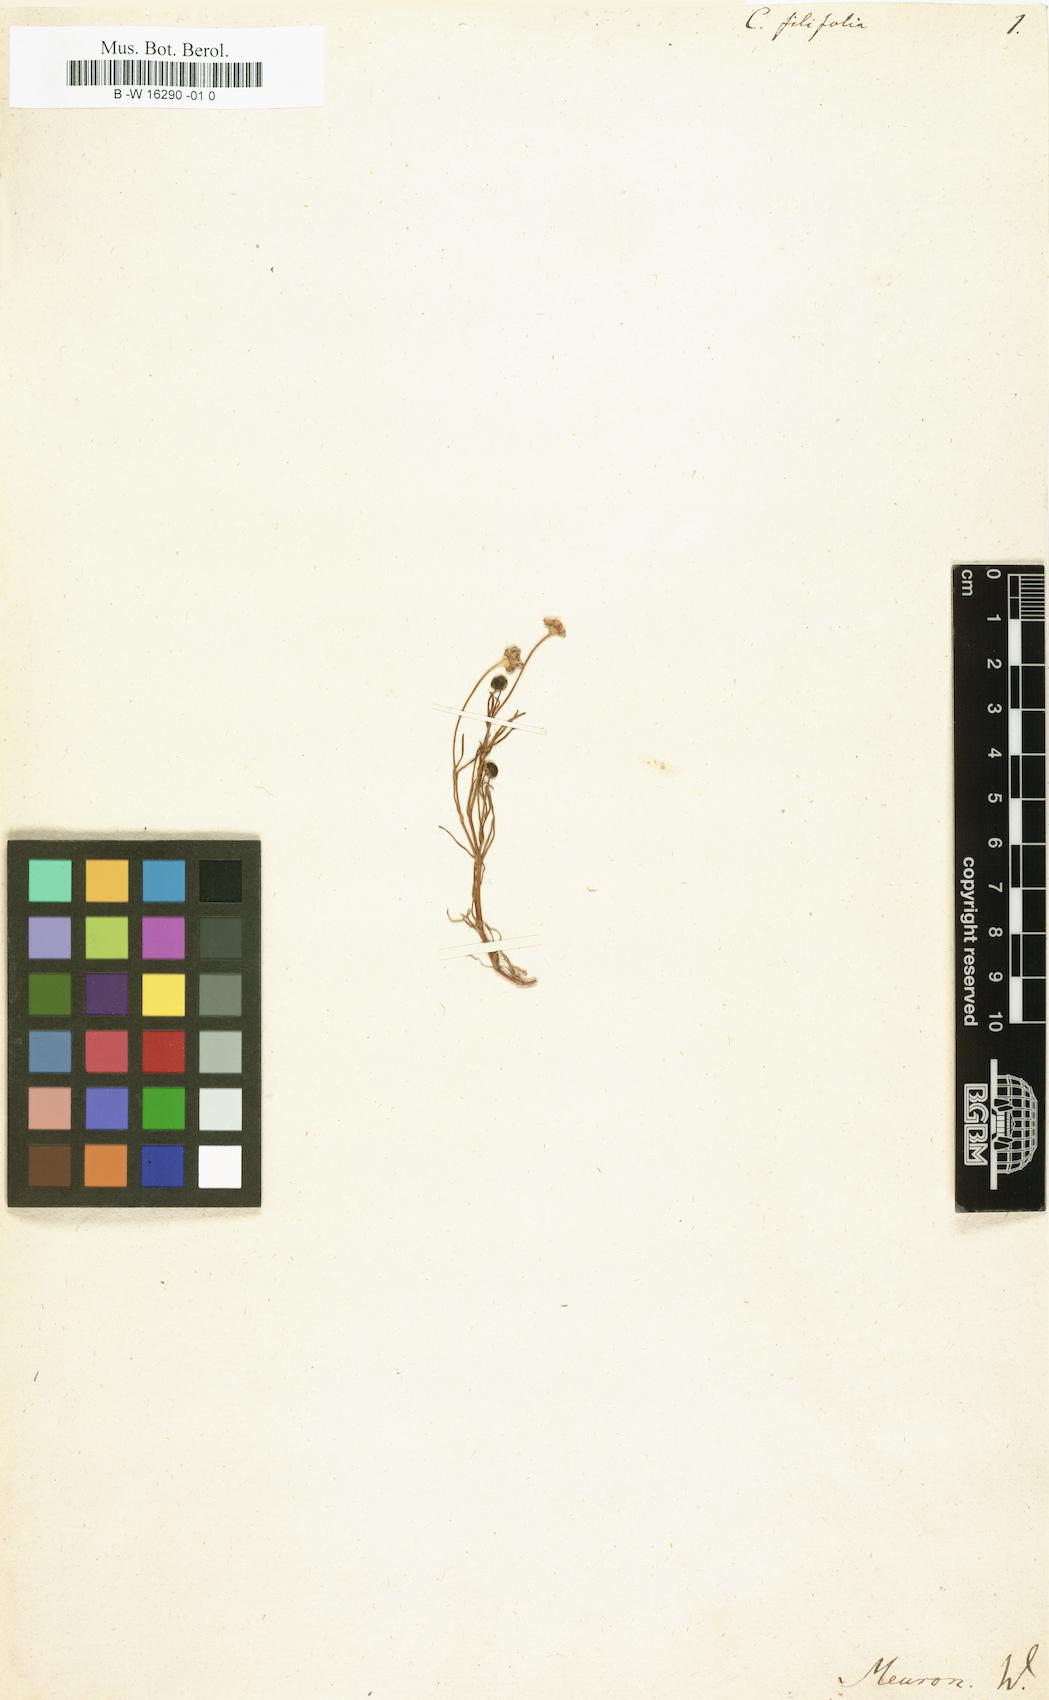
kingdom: Plantae
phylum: Tracheophyta
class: Magnoliopsida
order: Asterales
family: Asteraceae
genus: Cotula
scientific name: Cotula filifolia
